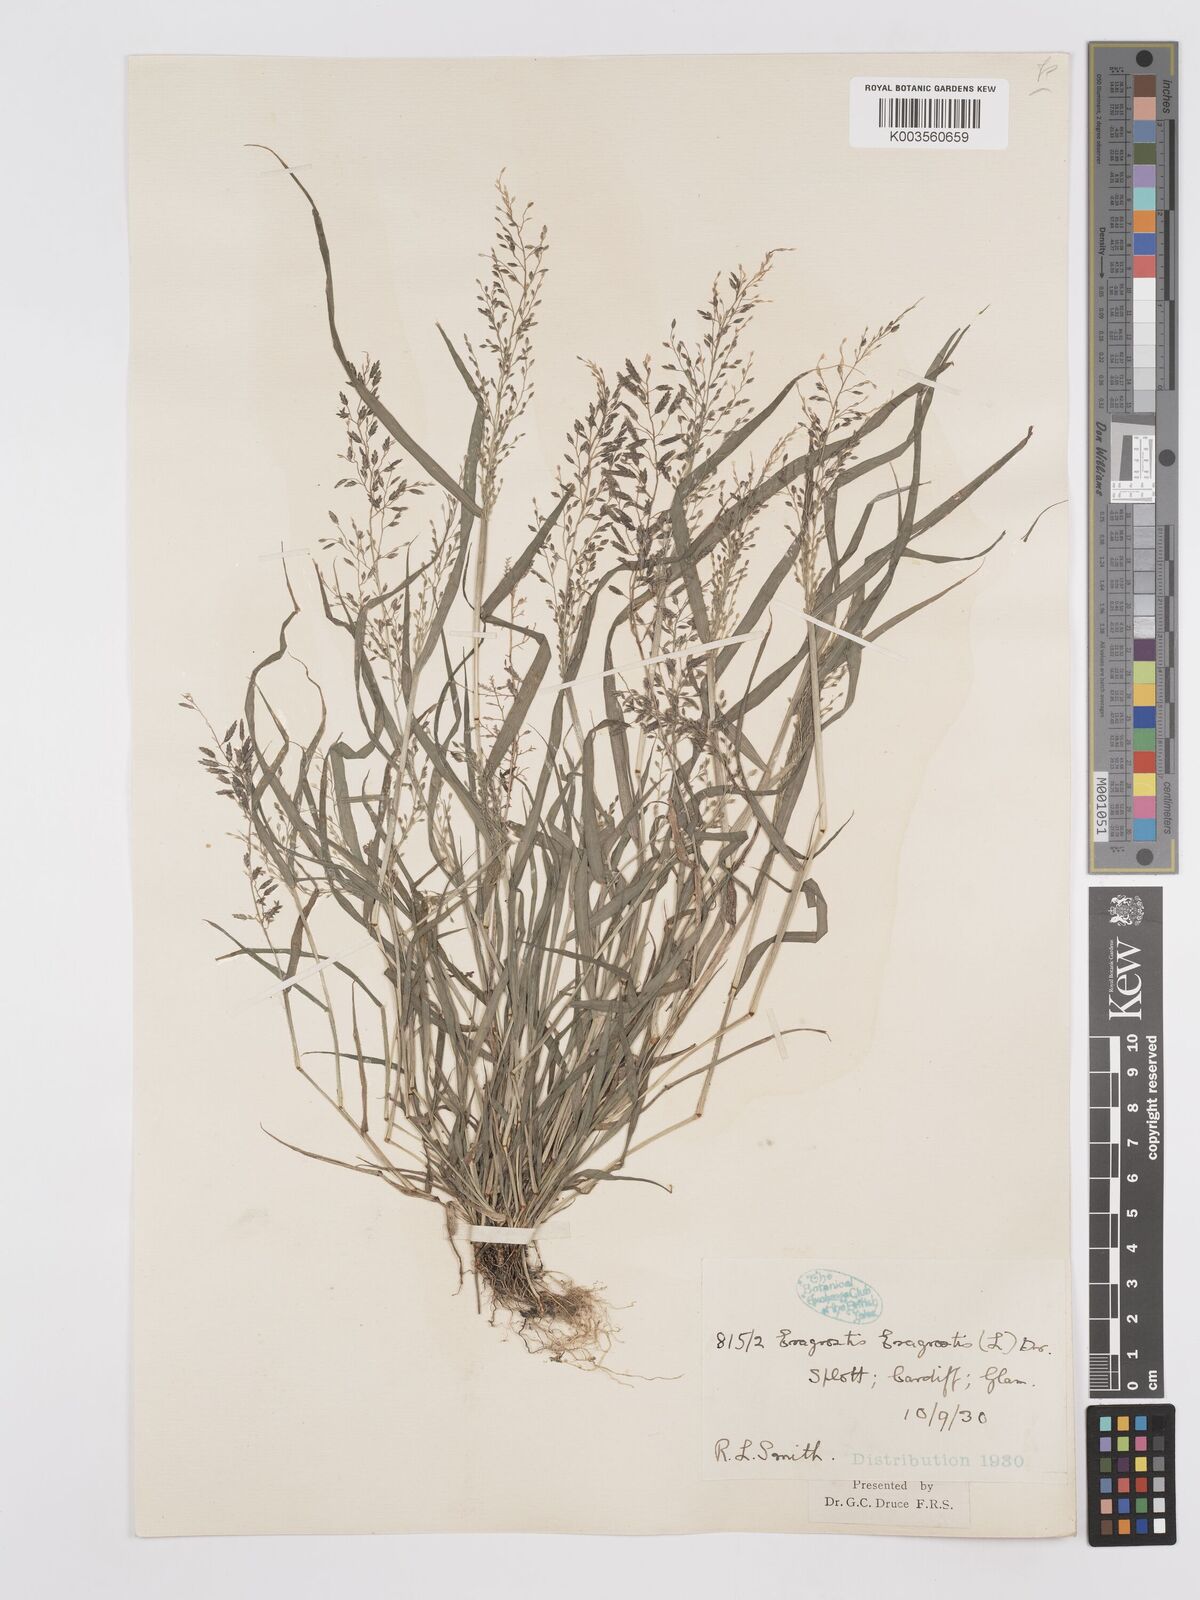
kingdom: Plantae
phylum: Tracheophyta
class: Liliopsida
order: Poales
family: Poaceae
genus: Eragrostis
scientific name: Eragrostis minor
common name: Small love-grass
